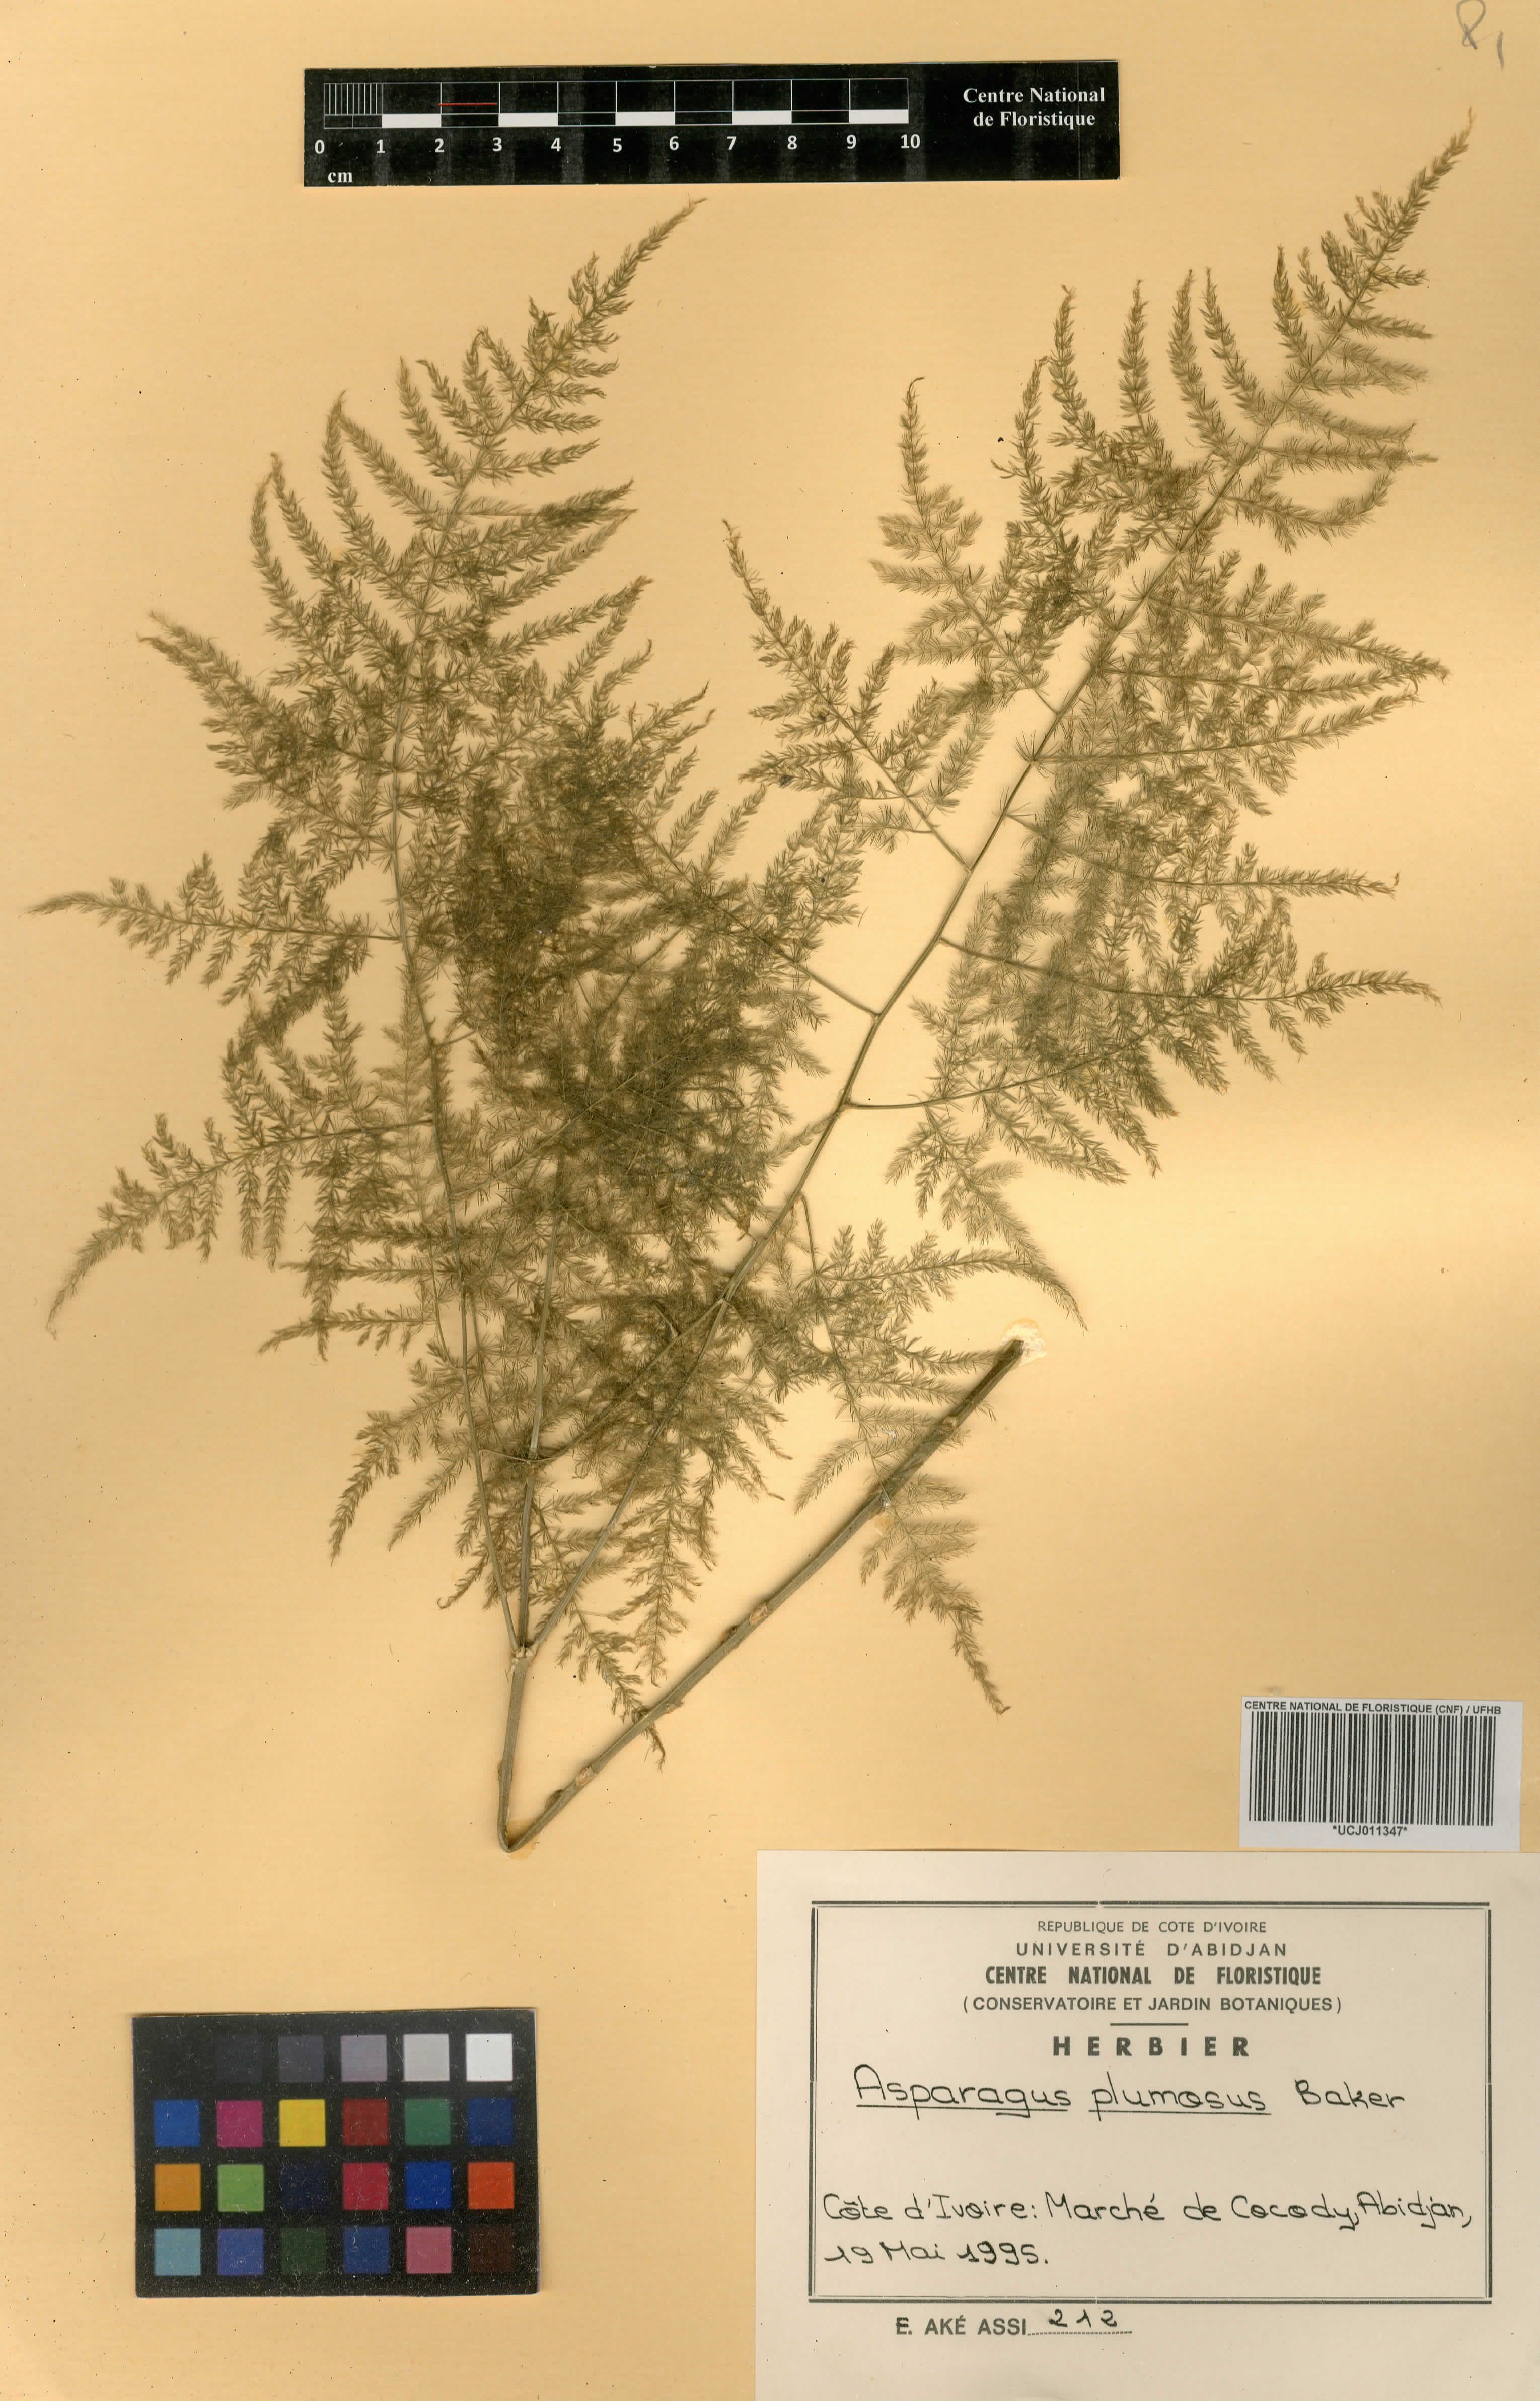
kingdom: Plantae
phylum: Tracheophyta
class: Liliopsida
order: Asparagales
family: Asparagaceae
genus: Asparagus
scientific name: Asparagus setaceus
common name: Common asparagus fern
